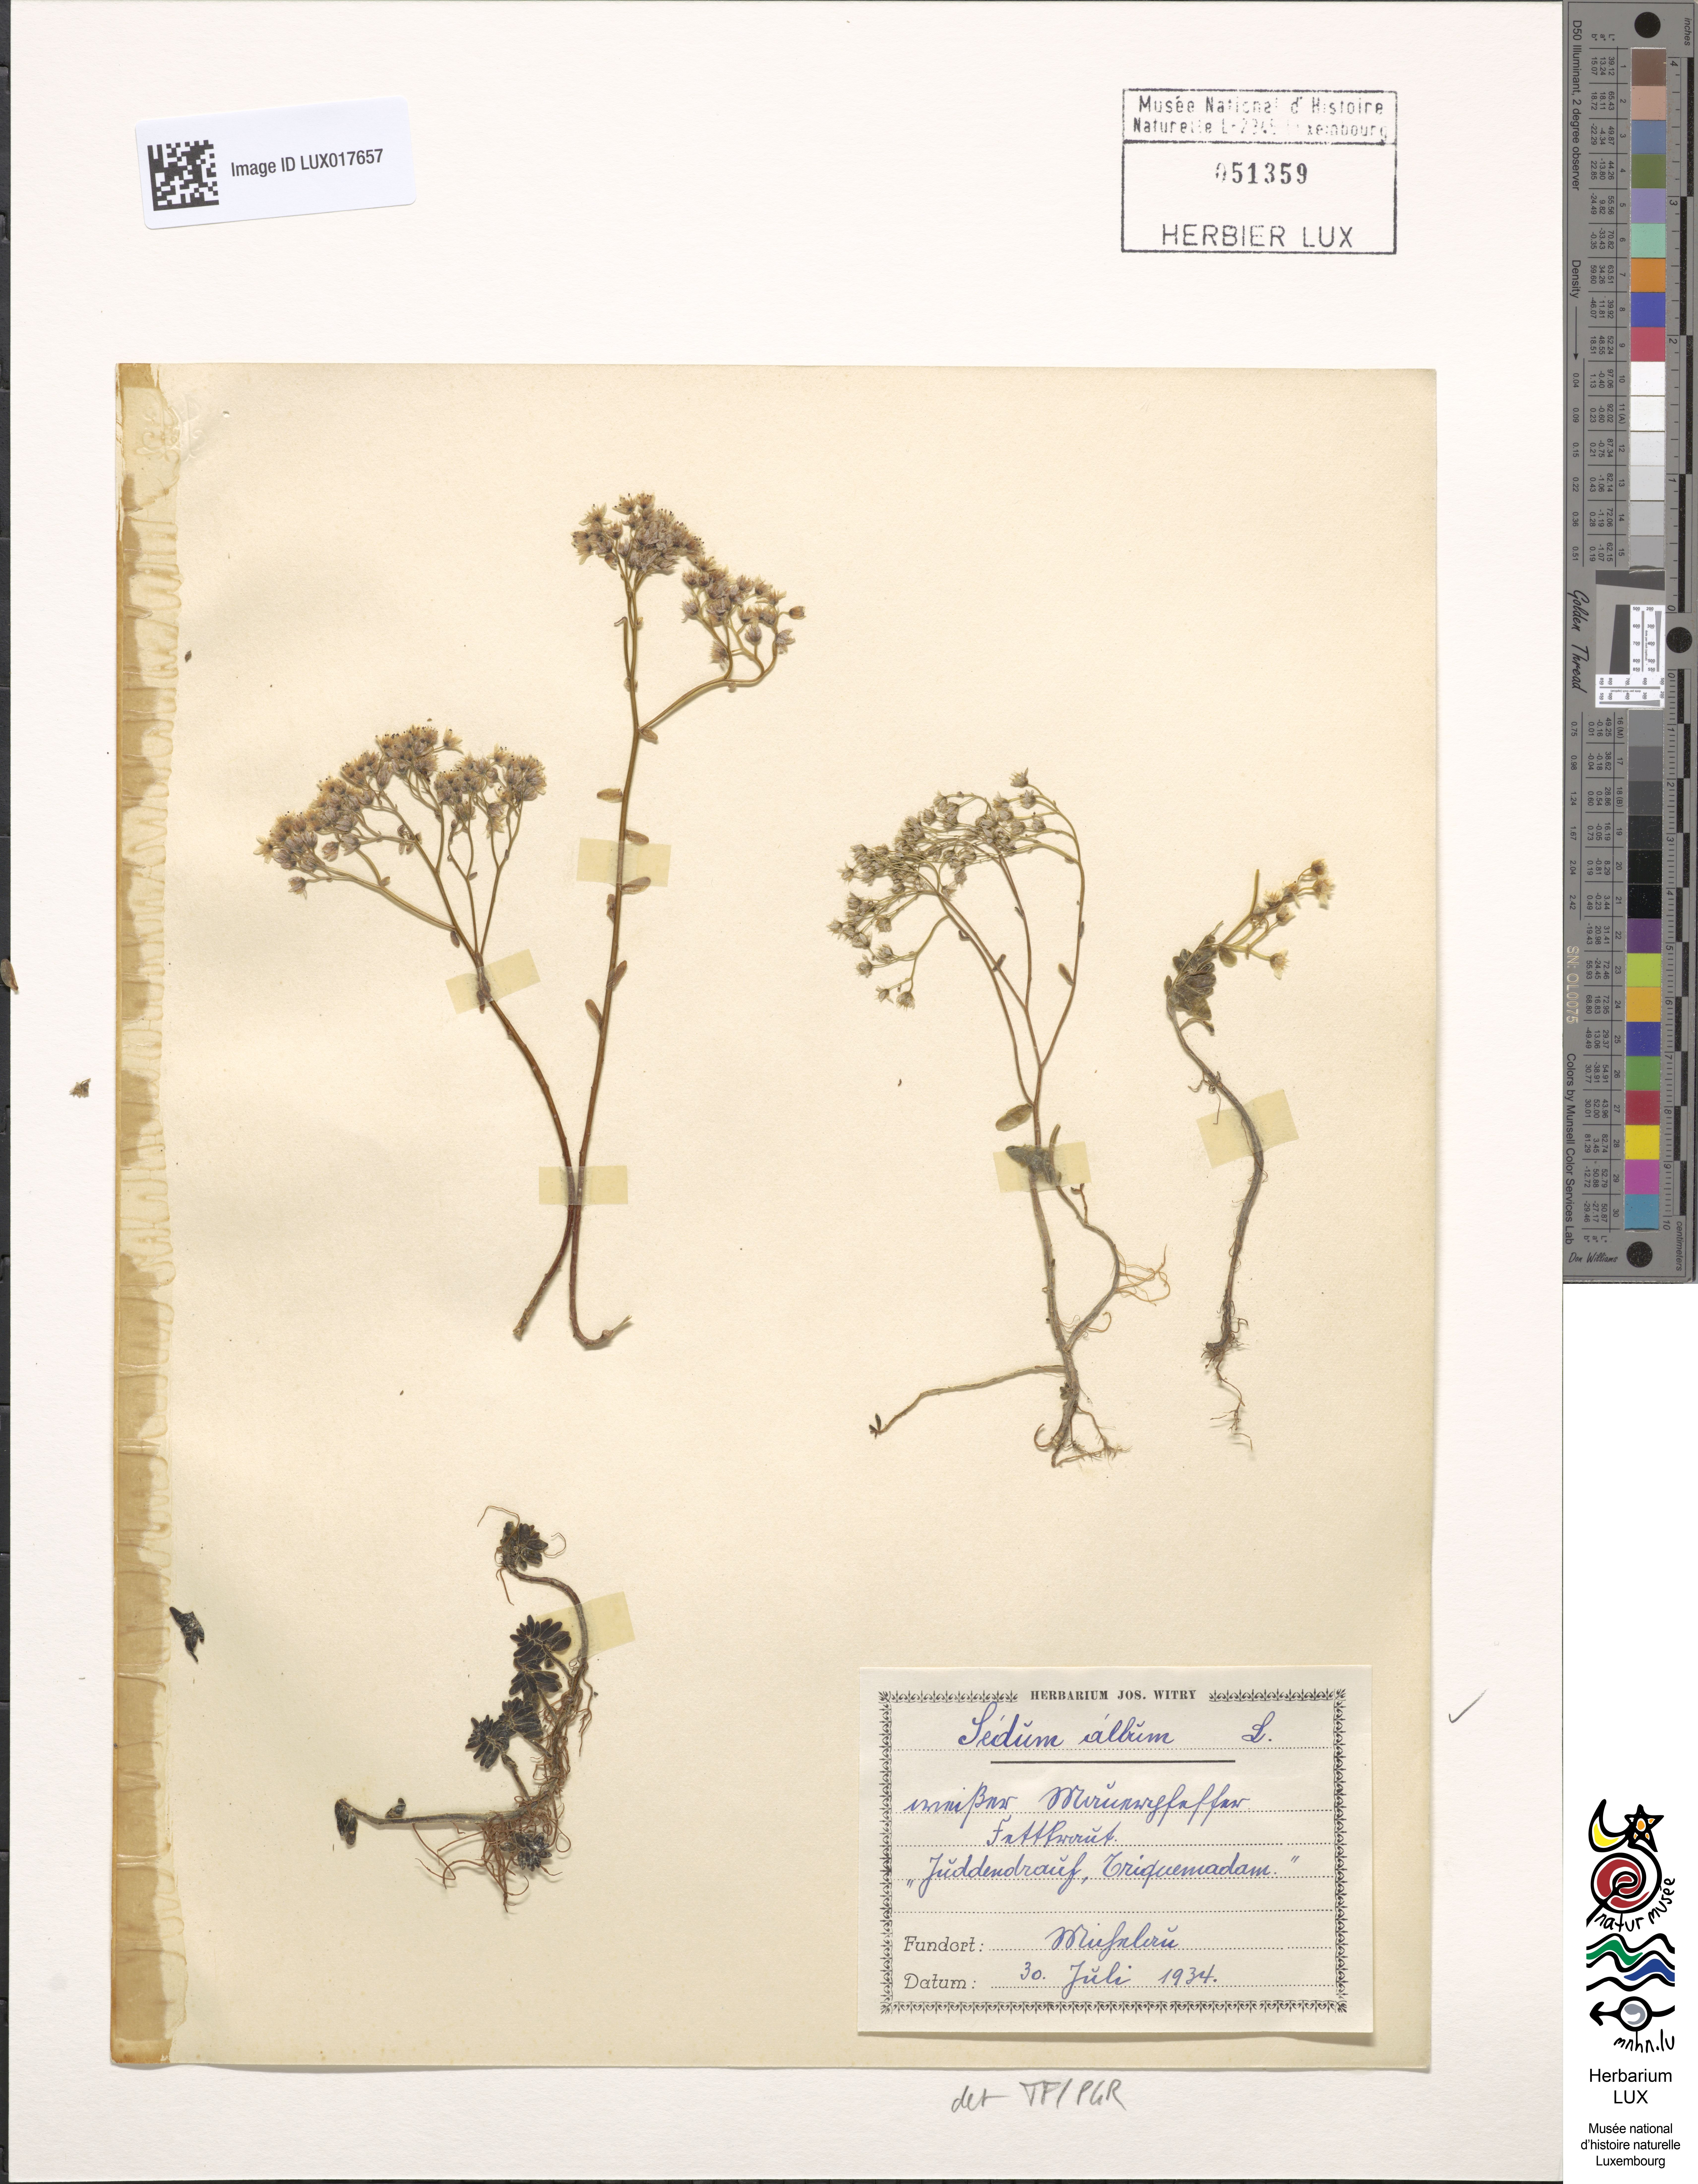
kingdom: Plantae
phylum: Tracheophyta
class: Magnoliopsida
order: Saxifragales
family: Crassulaceae
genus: Sedum
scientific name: Sedum album
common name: White stonecrop
